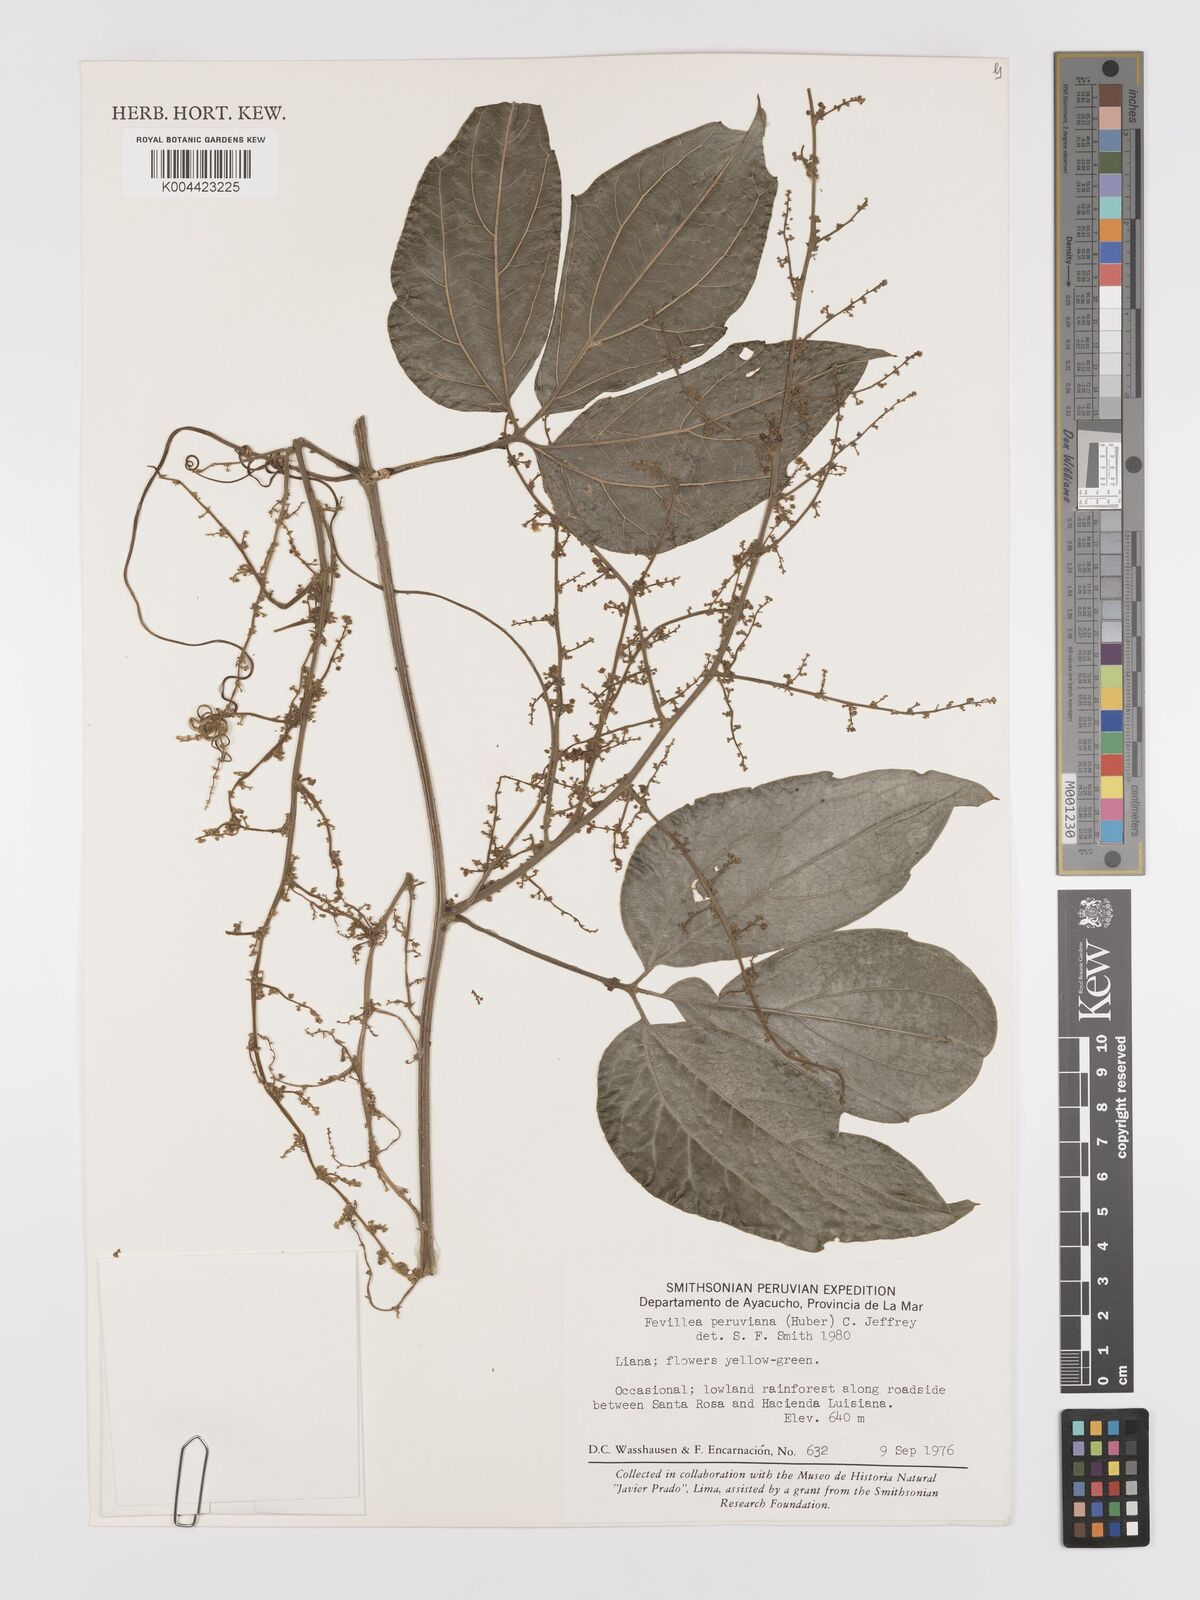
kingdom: Plantae
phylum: Tracheophyta
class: Magnoliopsida
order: Cucurbitales
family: Cucurbitaceae
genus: Fevillea
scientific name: Fevillea pedatifolia
